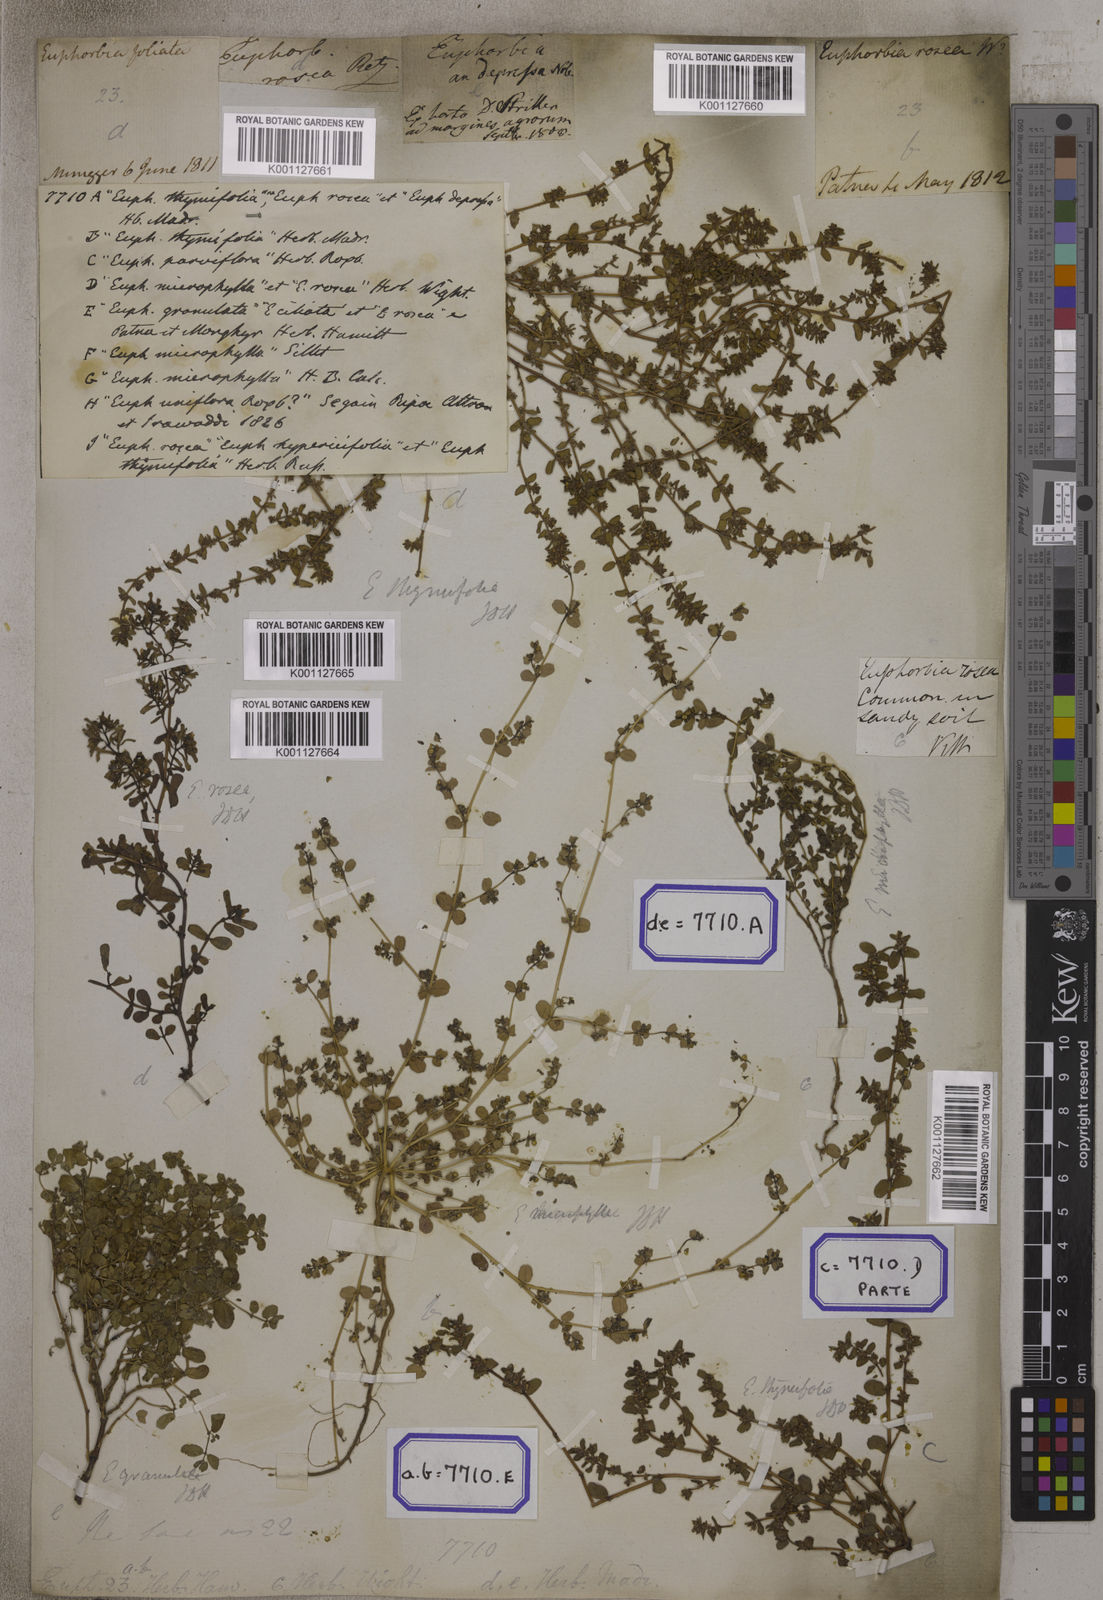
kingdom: Plantae
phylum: Tracheophyta
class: Magnoliopsida
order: Malpighiales
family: Euphorbiaceae
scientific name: Euphorbiaceae
